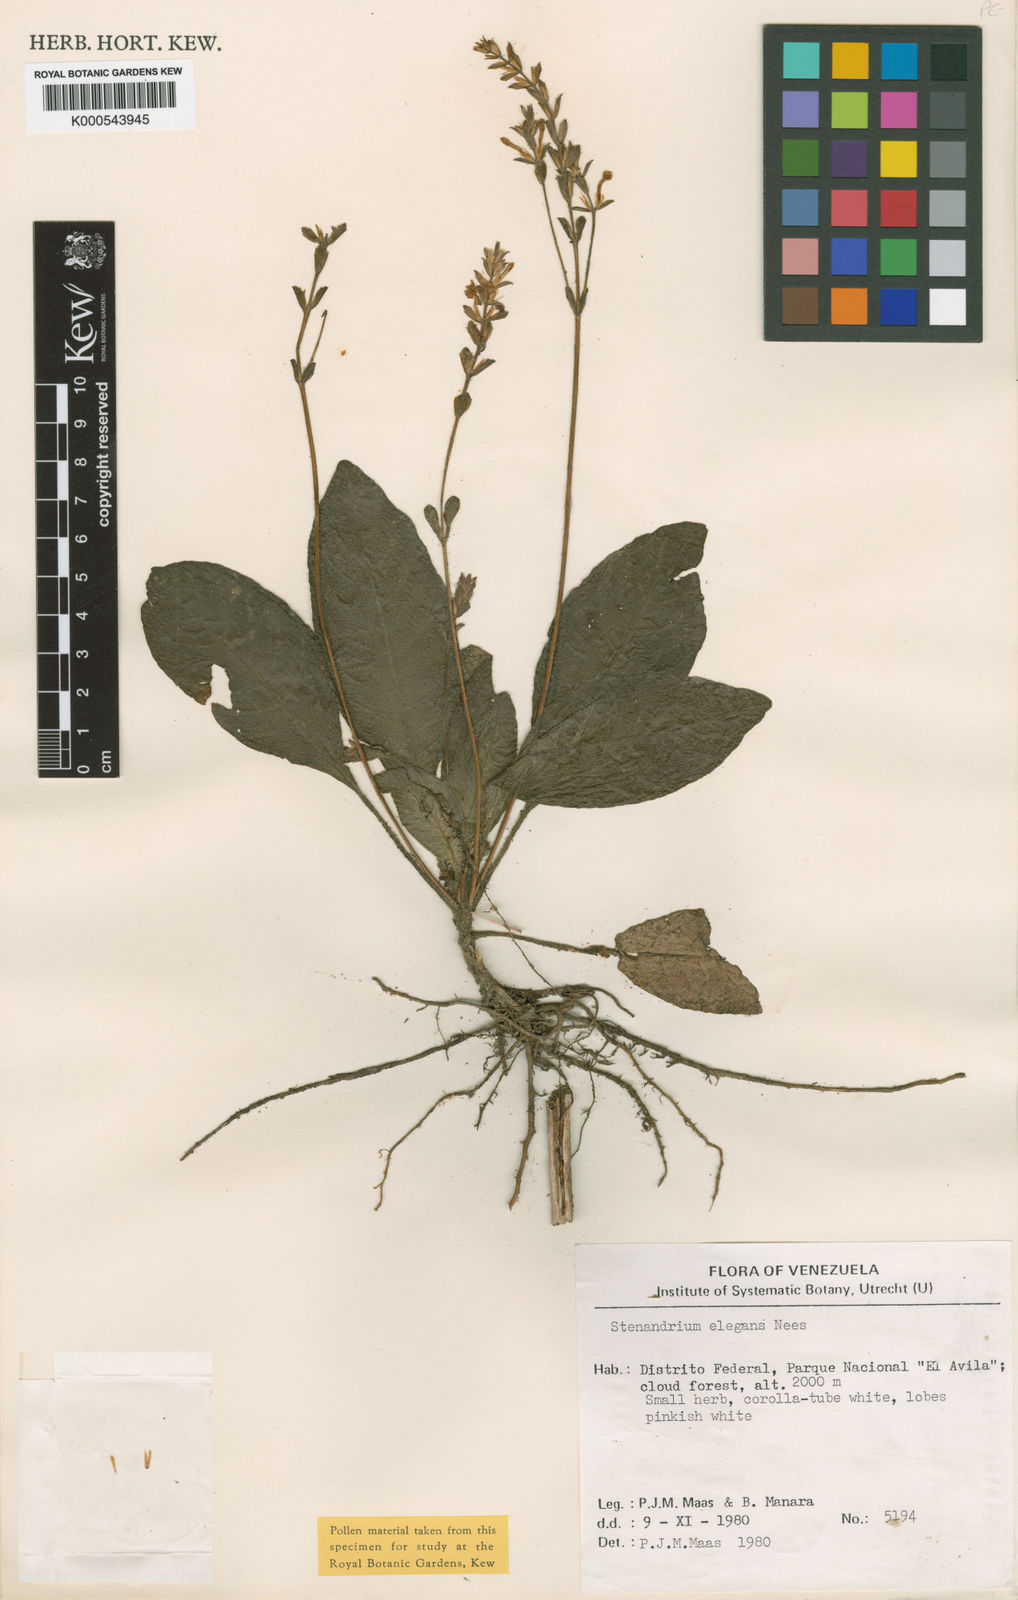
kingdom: Plantae
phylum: Tracheophyta
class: Magnoliopsida
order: Lamiales
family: Acanthaceae
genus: Stenandrium
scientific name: Stenandrium elegans
